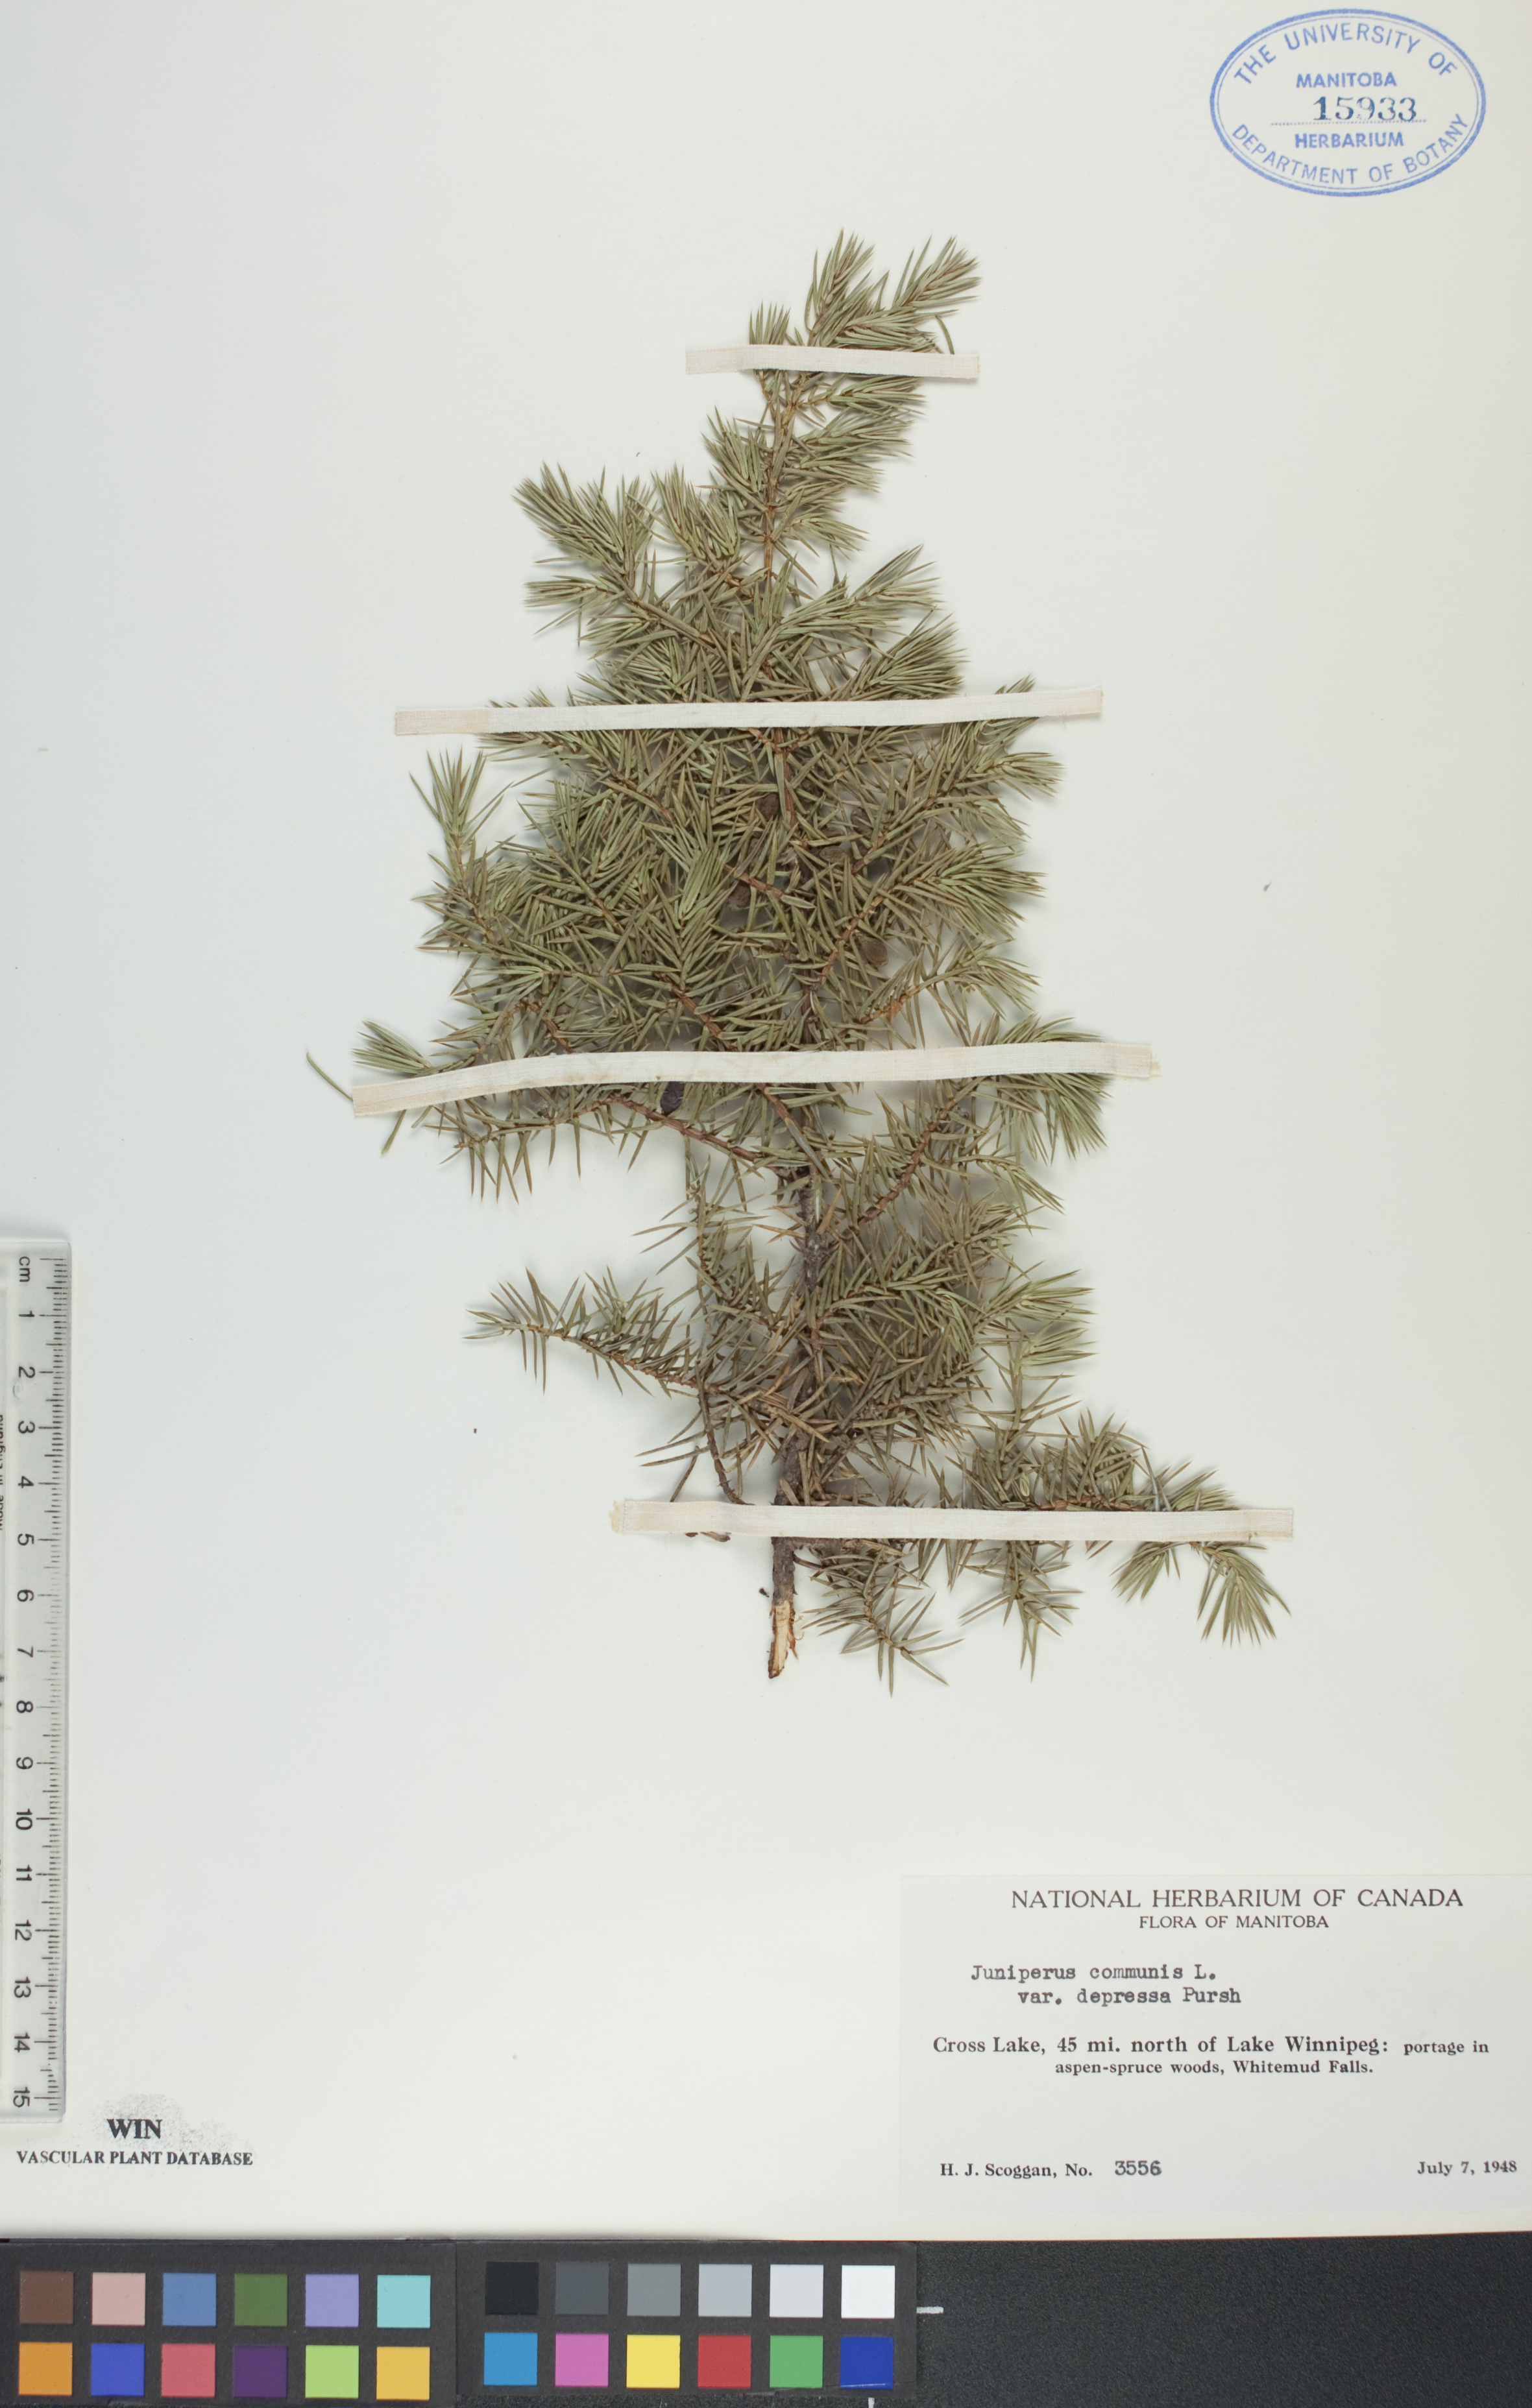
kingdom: Plantae
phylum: Tracheophyta
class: Pinopsida
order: Pinales
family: Cupressaceae
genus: Juniperus
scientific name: Juniperus communis
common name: Common juniper
